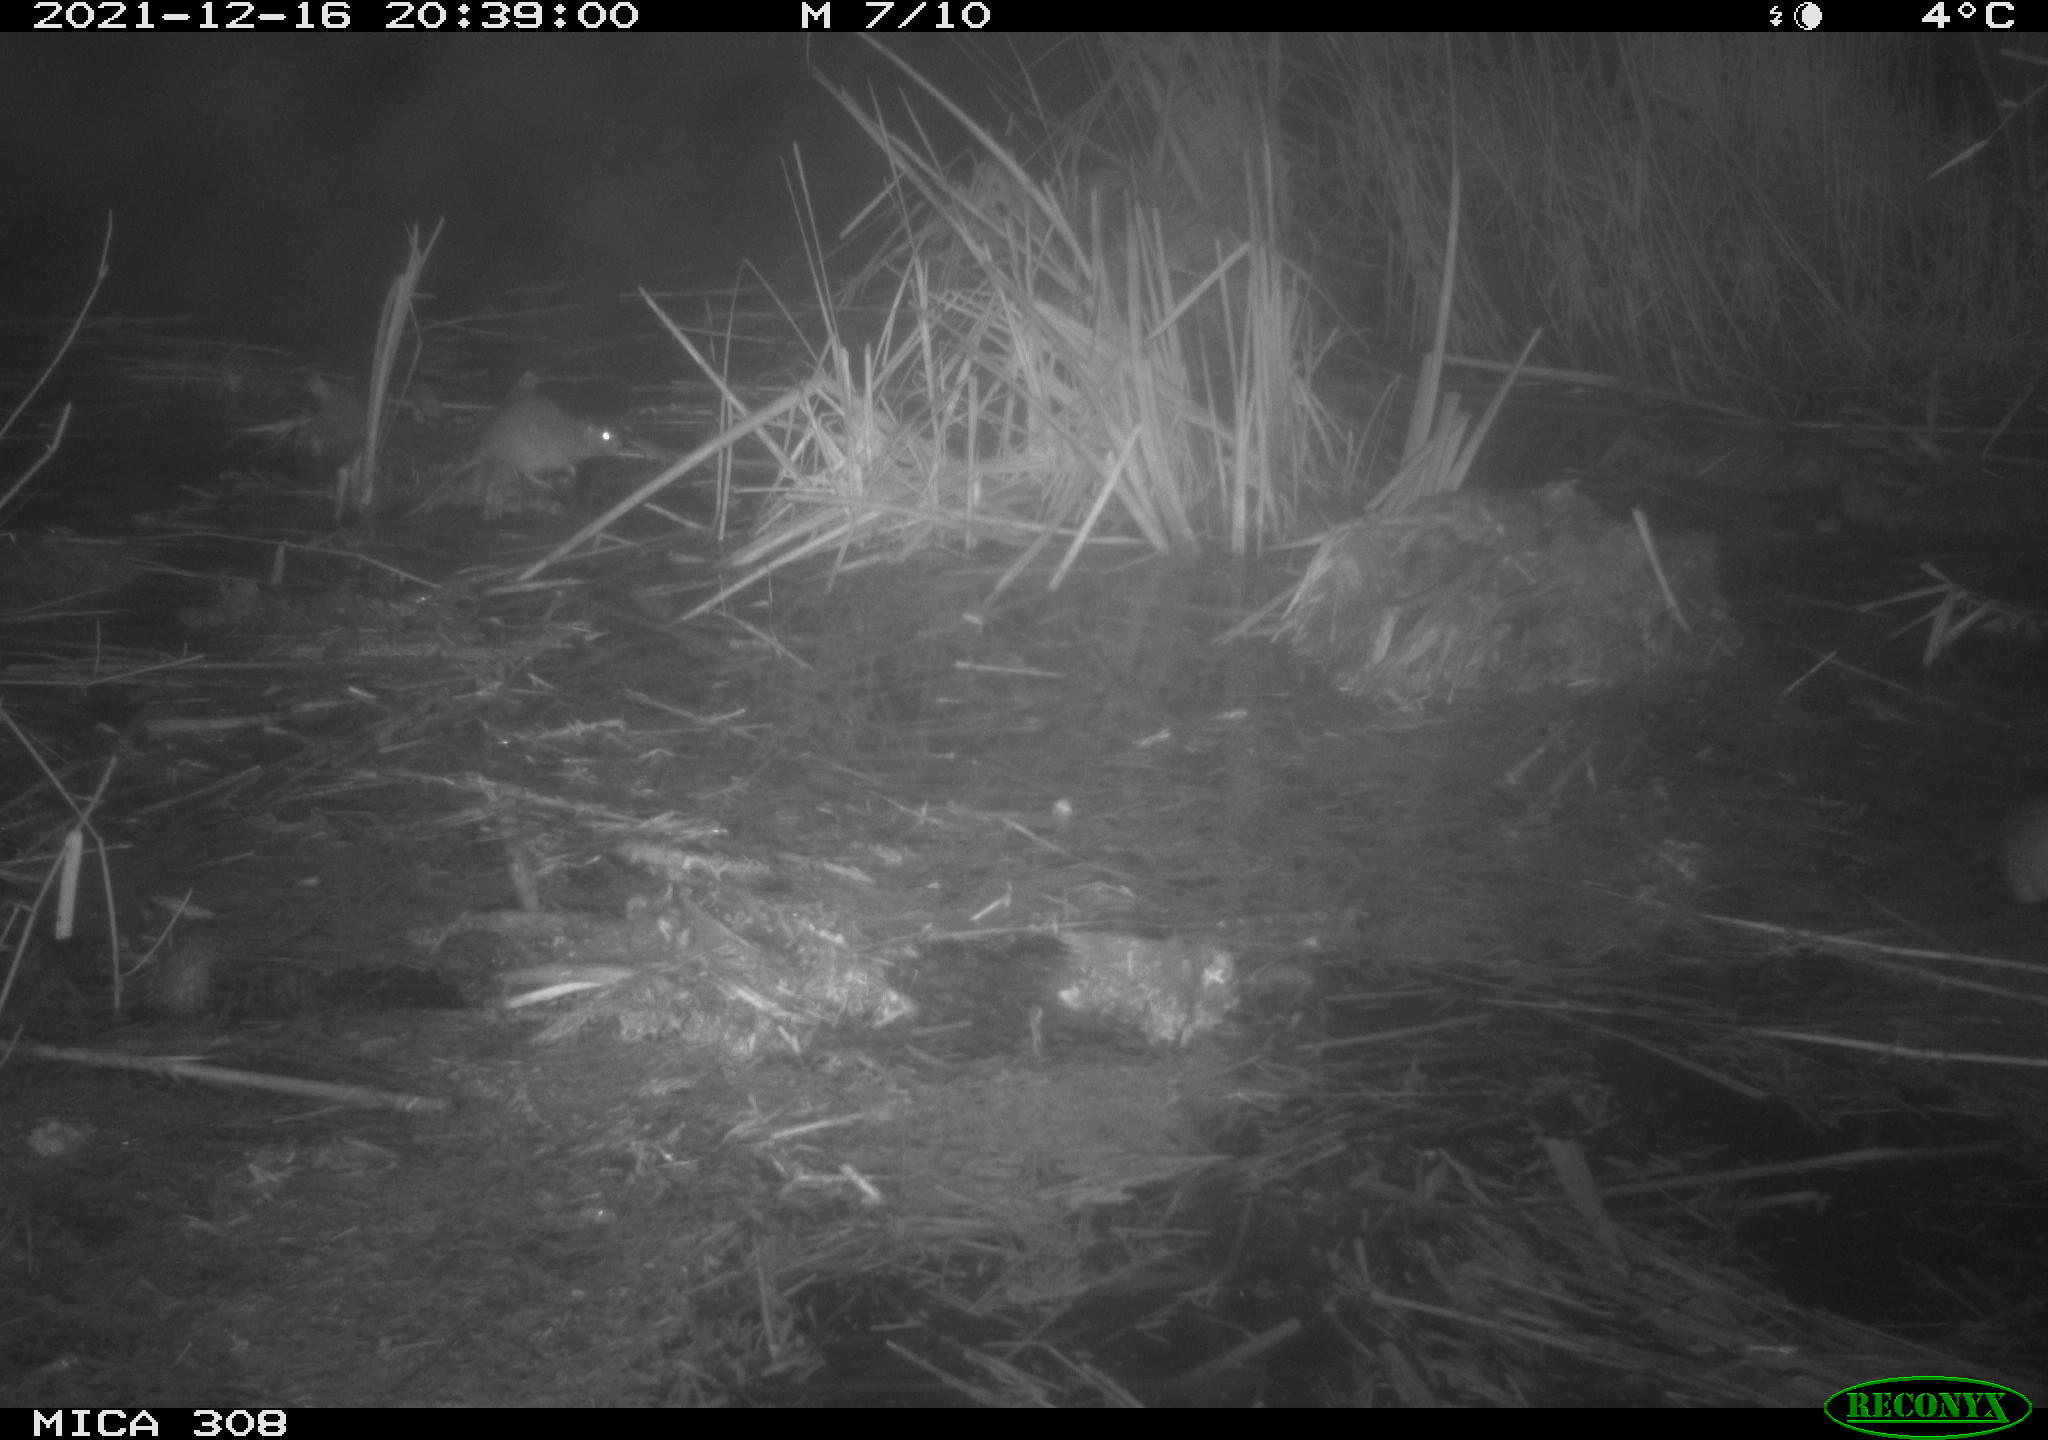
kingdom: Animalia
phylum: Chordata
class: Mammalia
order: Rodentia
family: Muridae
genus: Rattus
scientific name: Rattus norvegicus
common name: Brown rat
